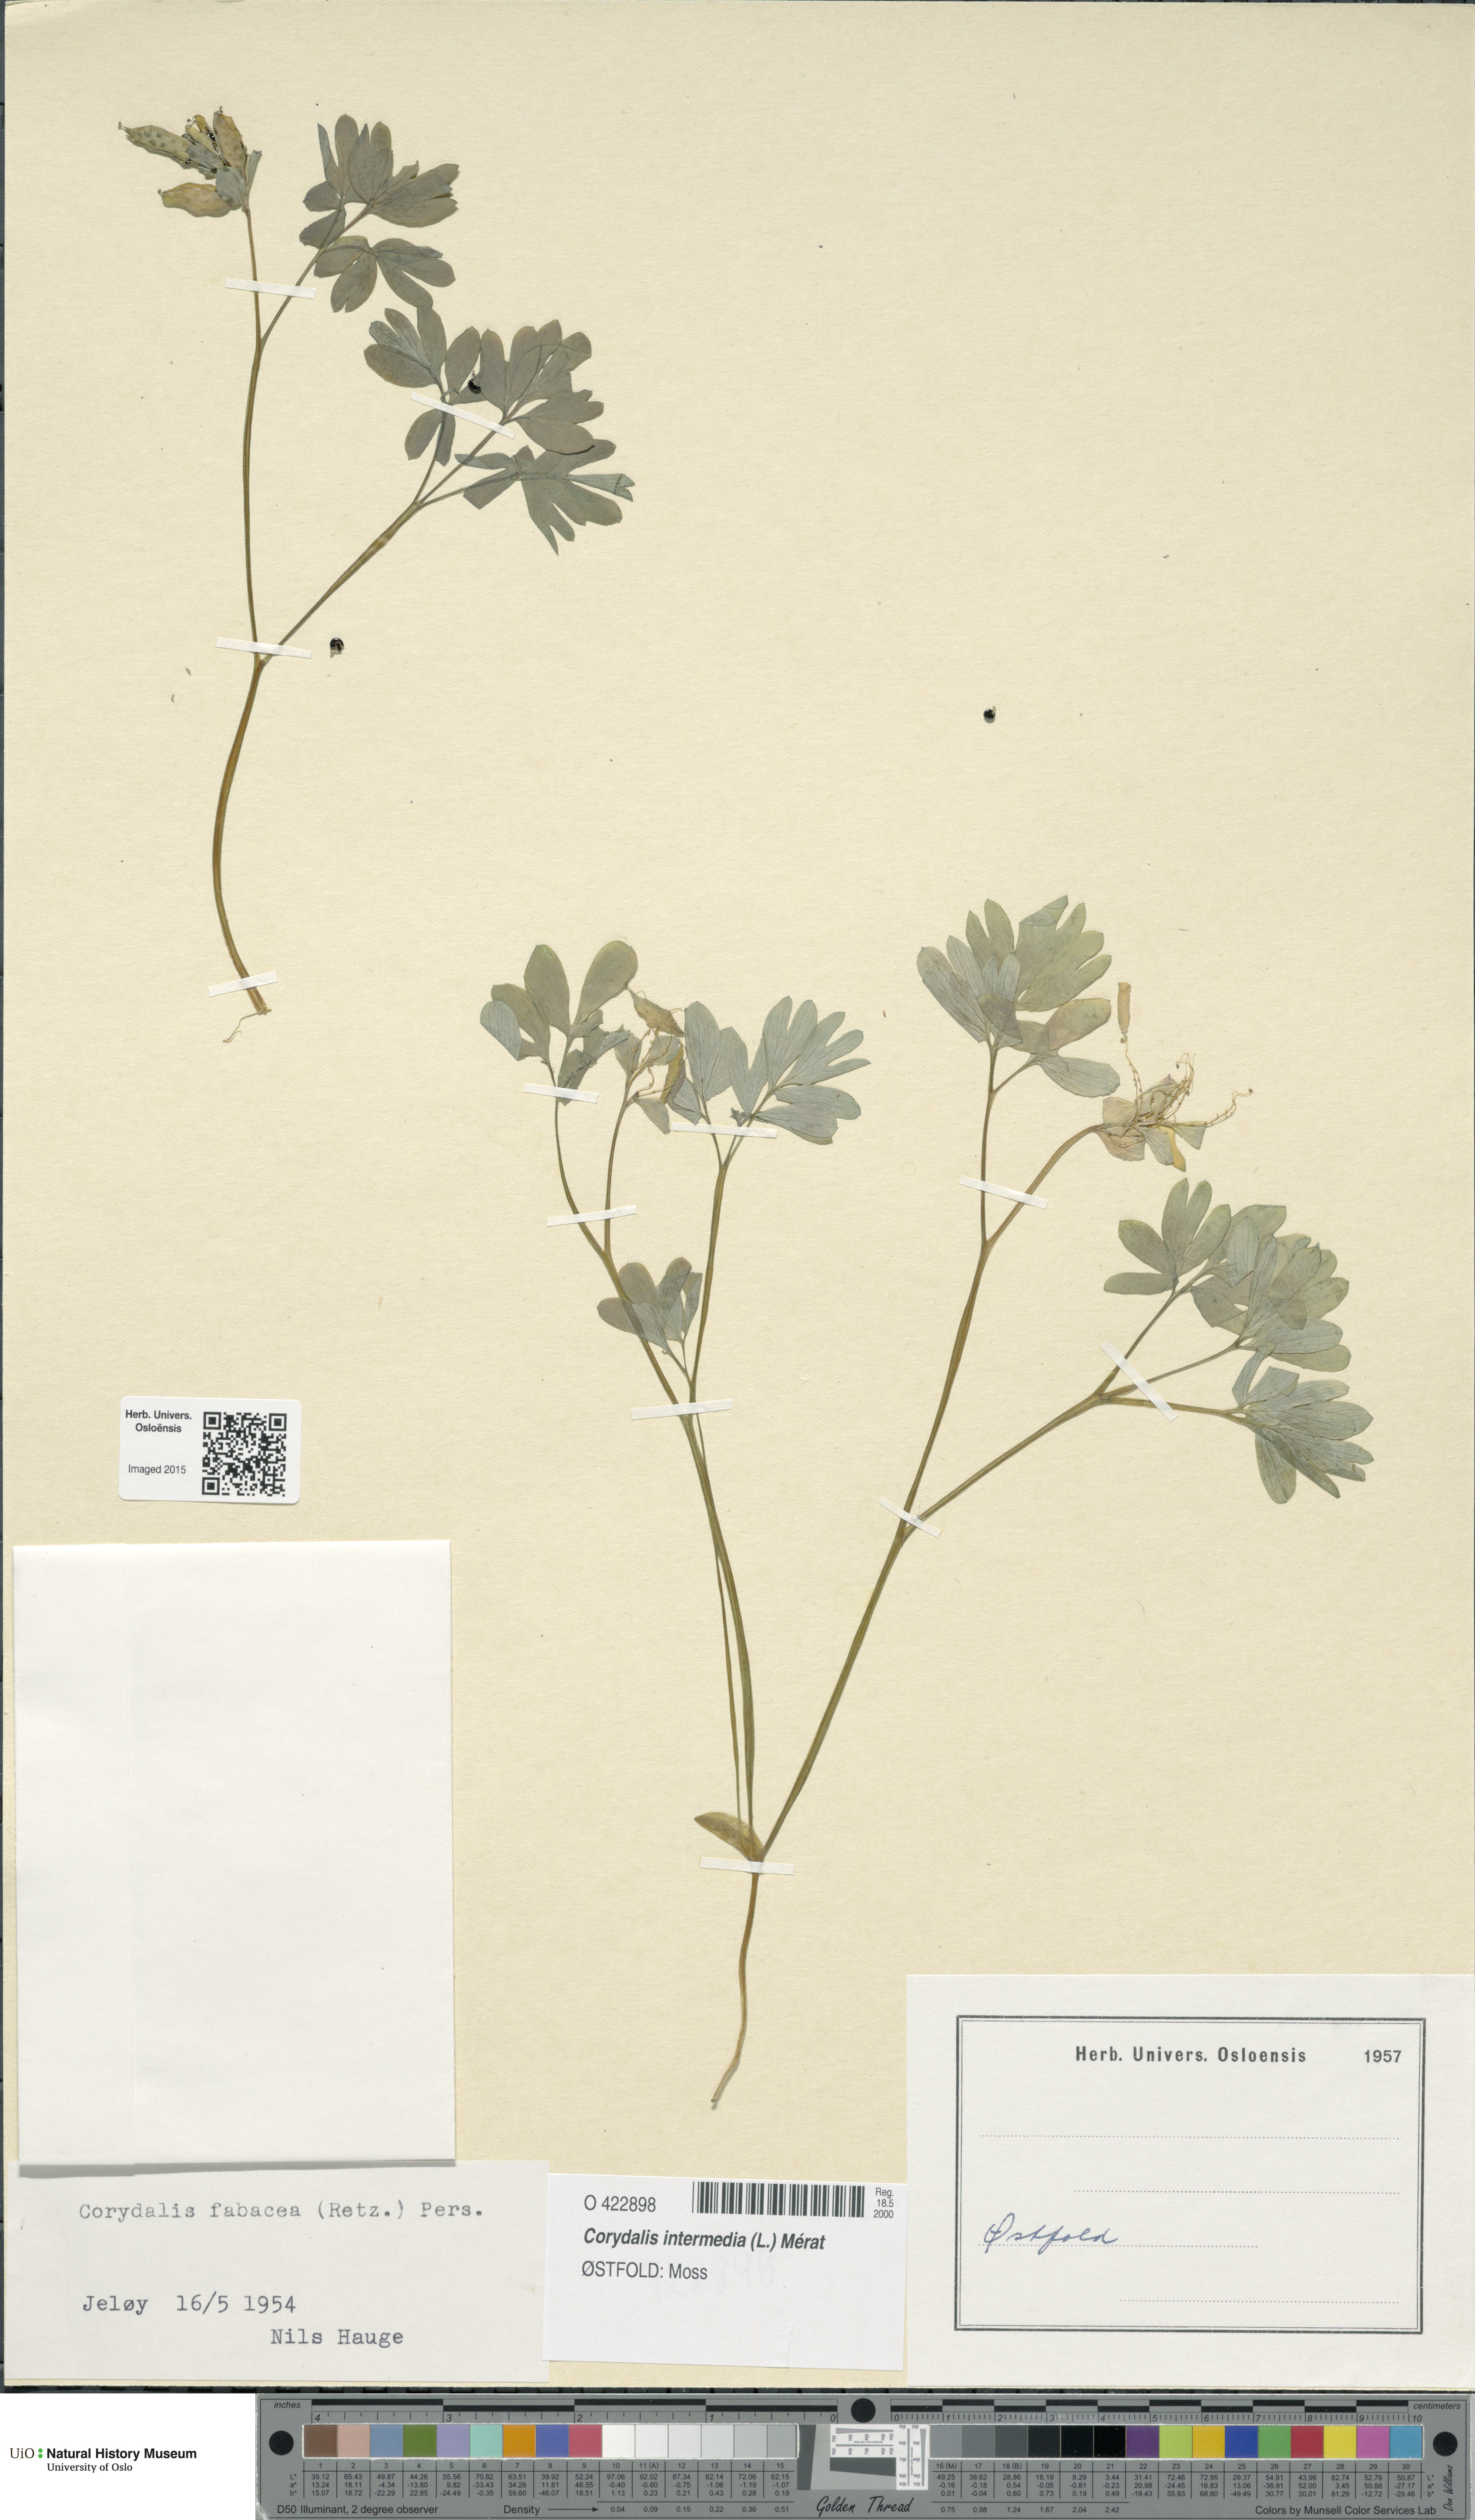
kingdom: Plantae
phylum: Tracheophyta
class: Magnoliopsida
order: Ranunculales
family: Papaveraceae
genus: Corydalis
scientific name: Corydalis intermedia
